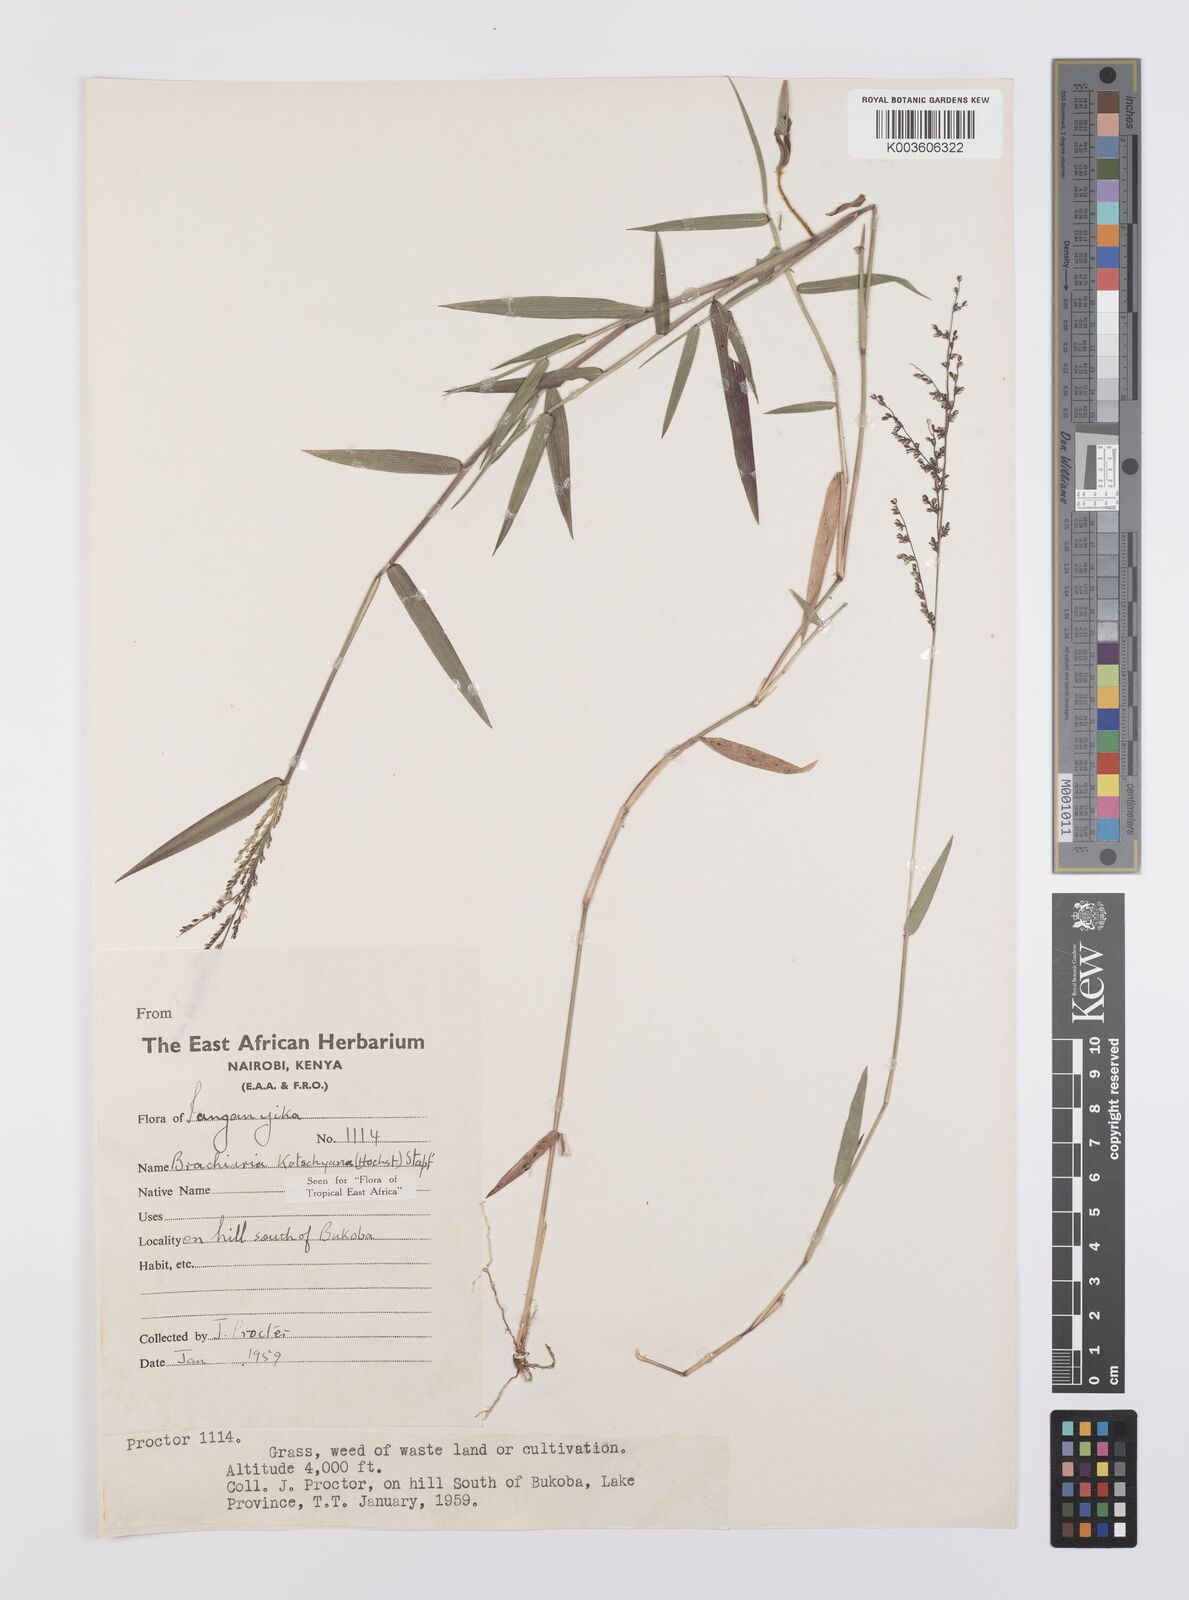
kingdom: Plantae
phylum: Tracheophyta
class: Liliopsida
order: Poales
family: Poaceae
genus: Urochloa
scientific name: Urochloa comata
